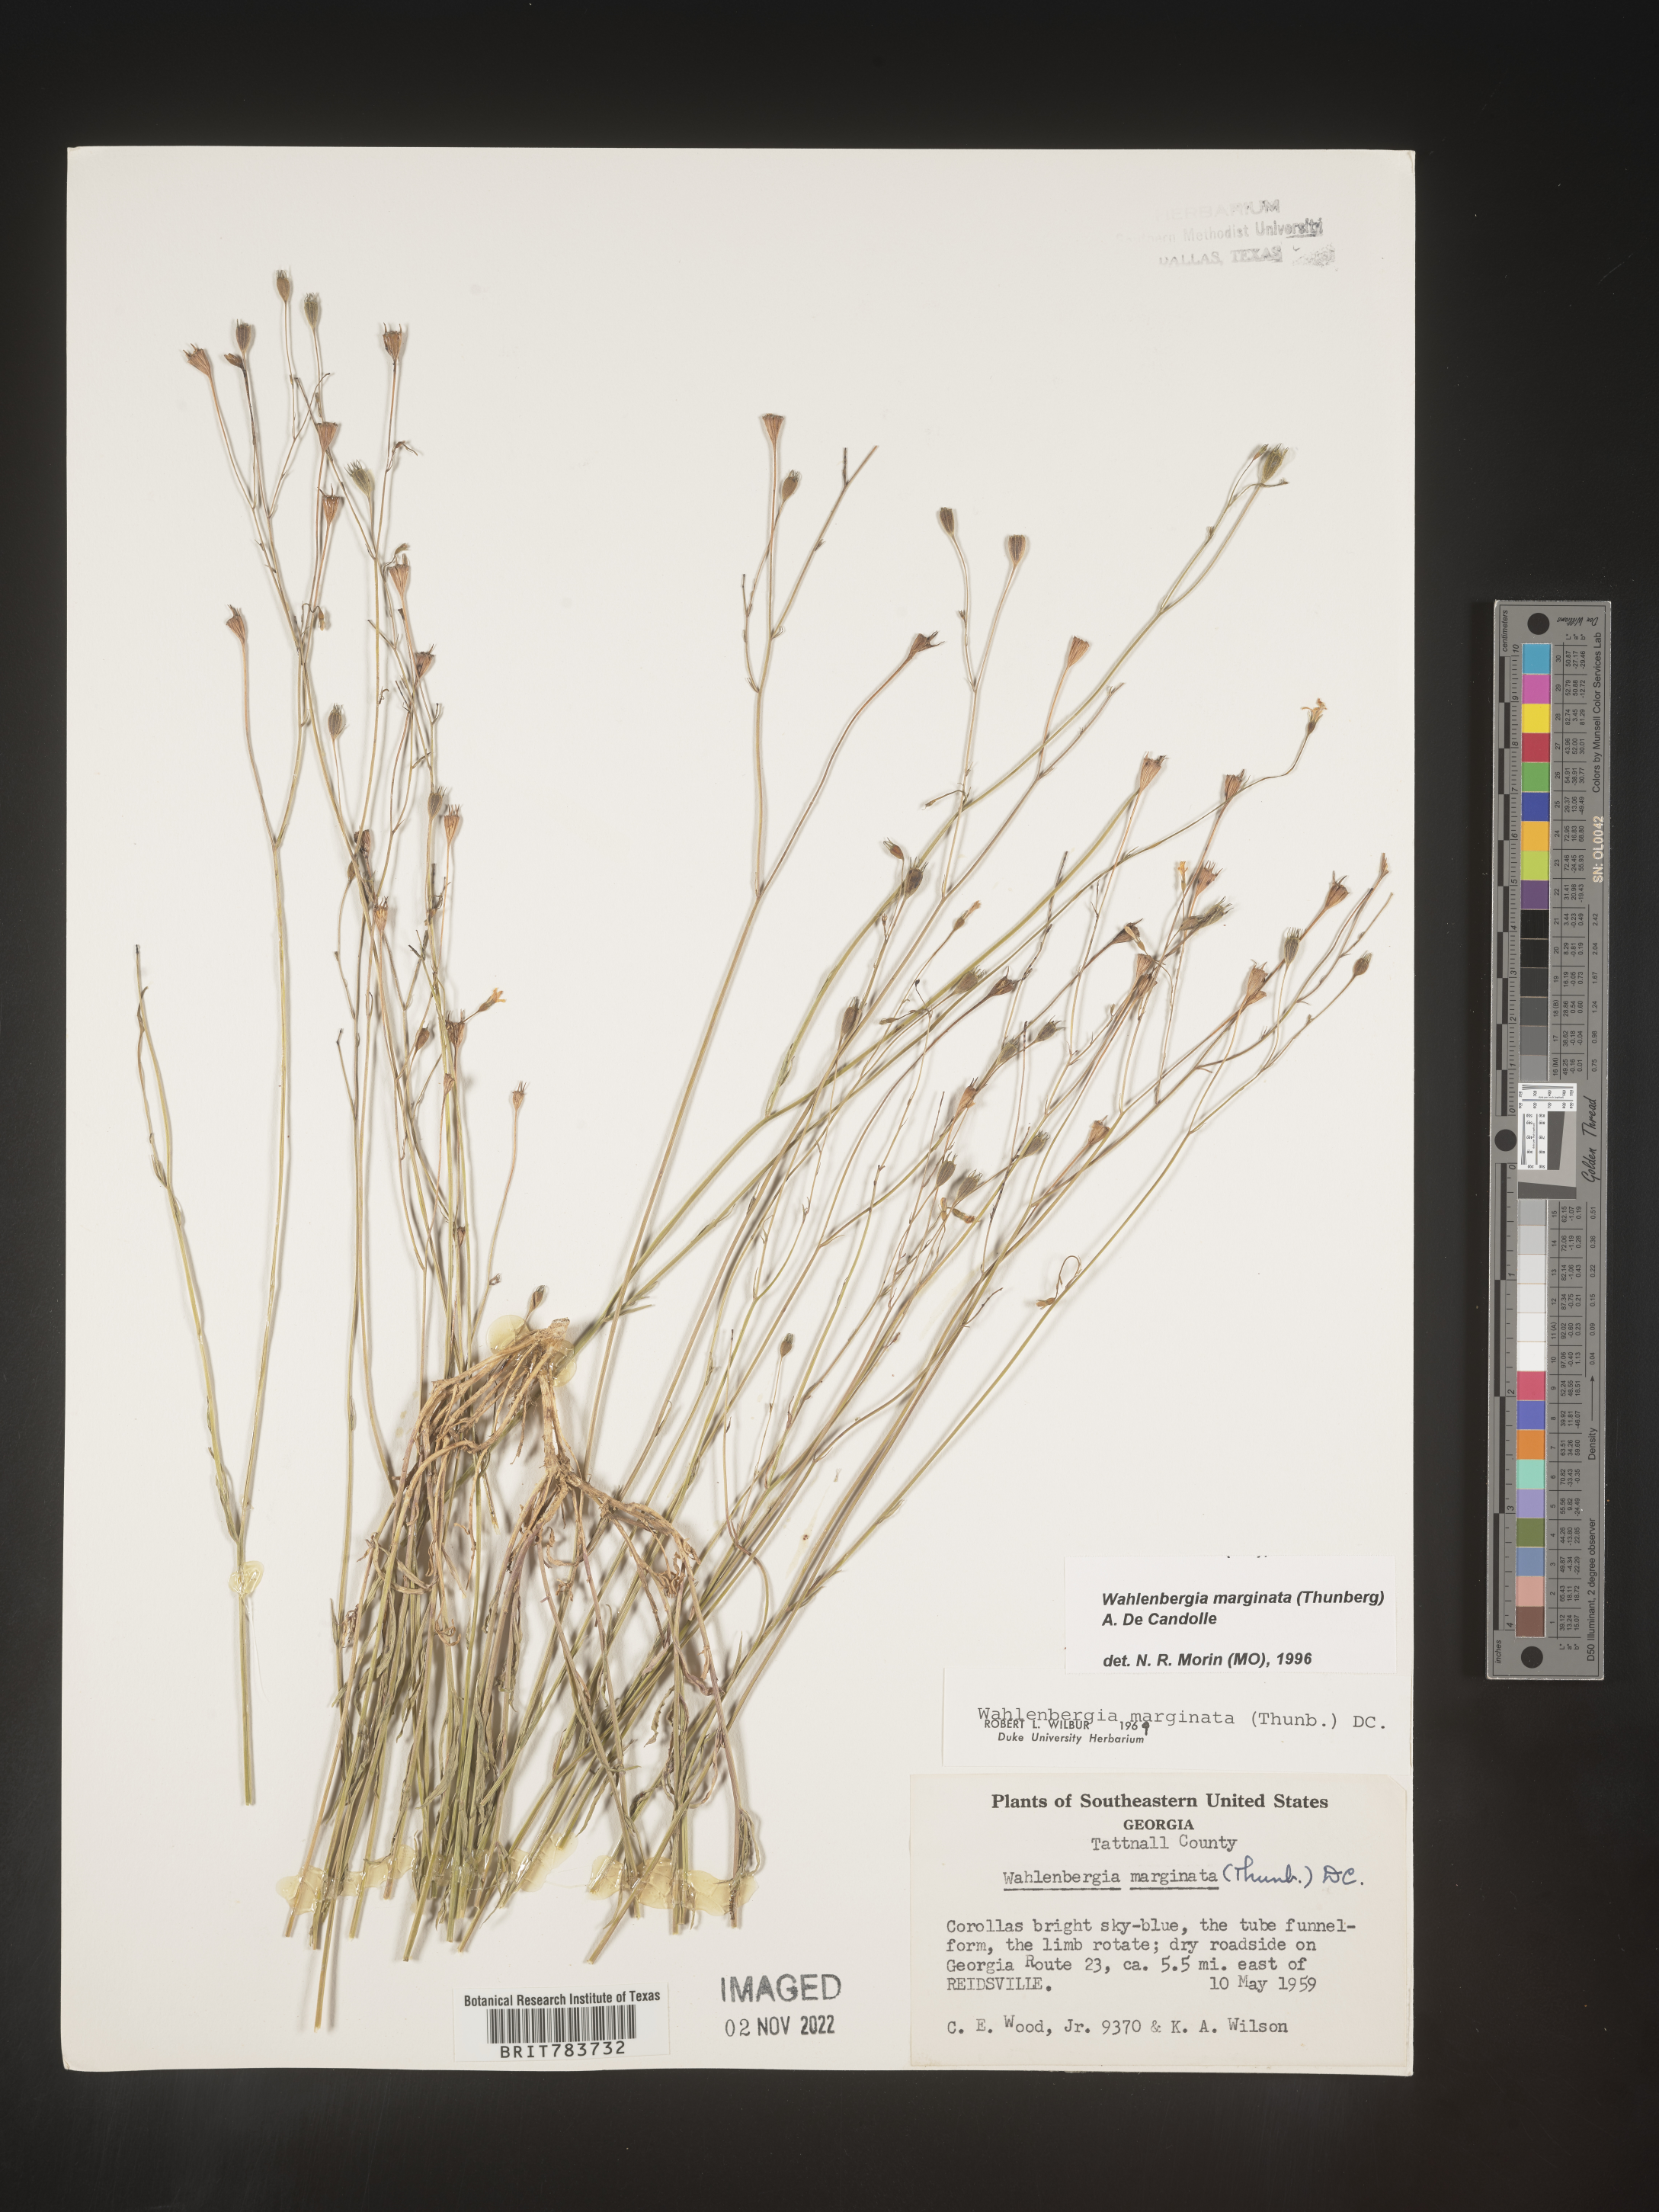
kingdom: Plantae
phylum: Tracheophyta
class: Magnoliopsida
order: Asterales
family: Campanulaceae
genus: Wahlenbergia
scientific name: Wahlenbergia marginata
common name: Southern rockbell
